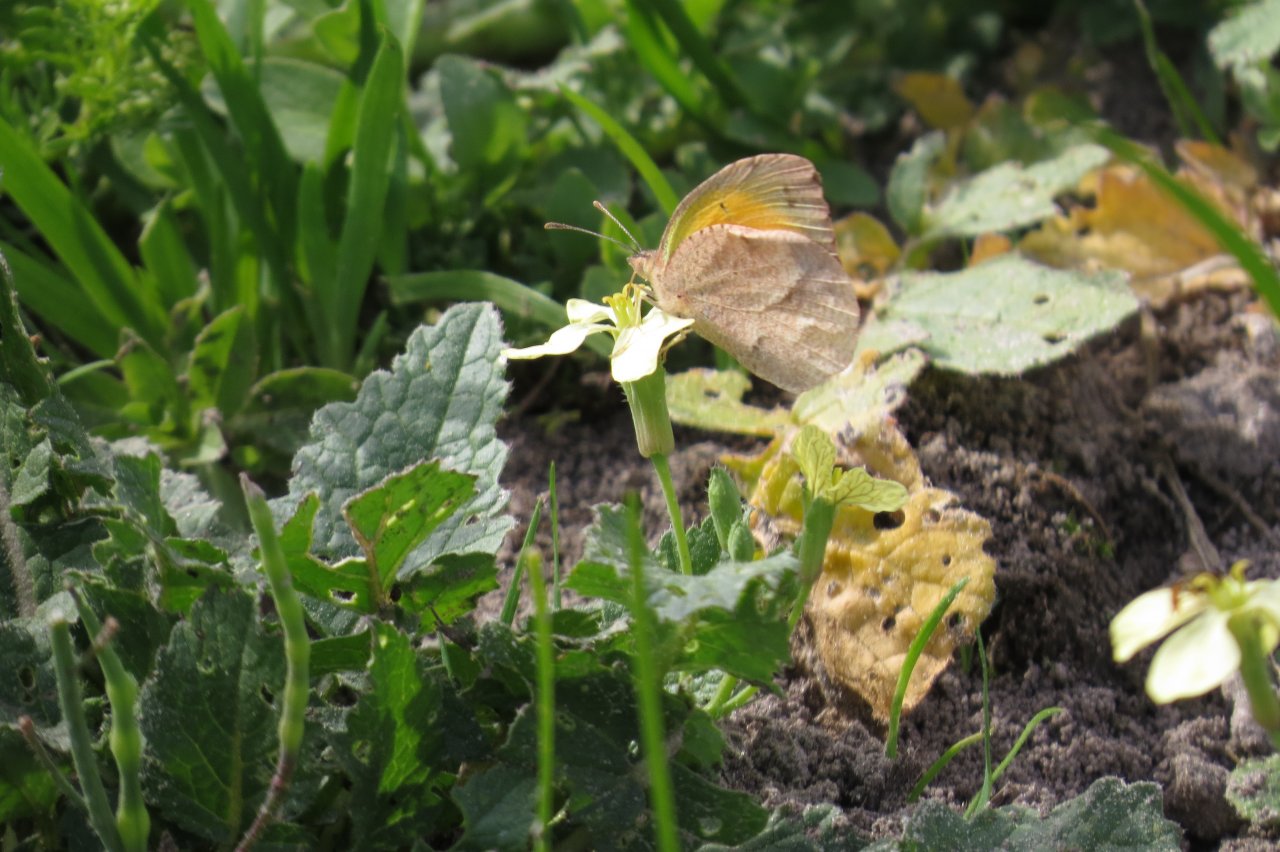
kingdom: Animalia
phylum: Arthropoda
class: Insecta
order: Lepidoptera
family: Pieridae
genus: Abaeis
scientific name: Abaeis nicippe
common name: Sleepy Orange
